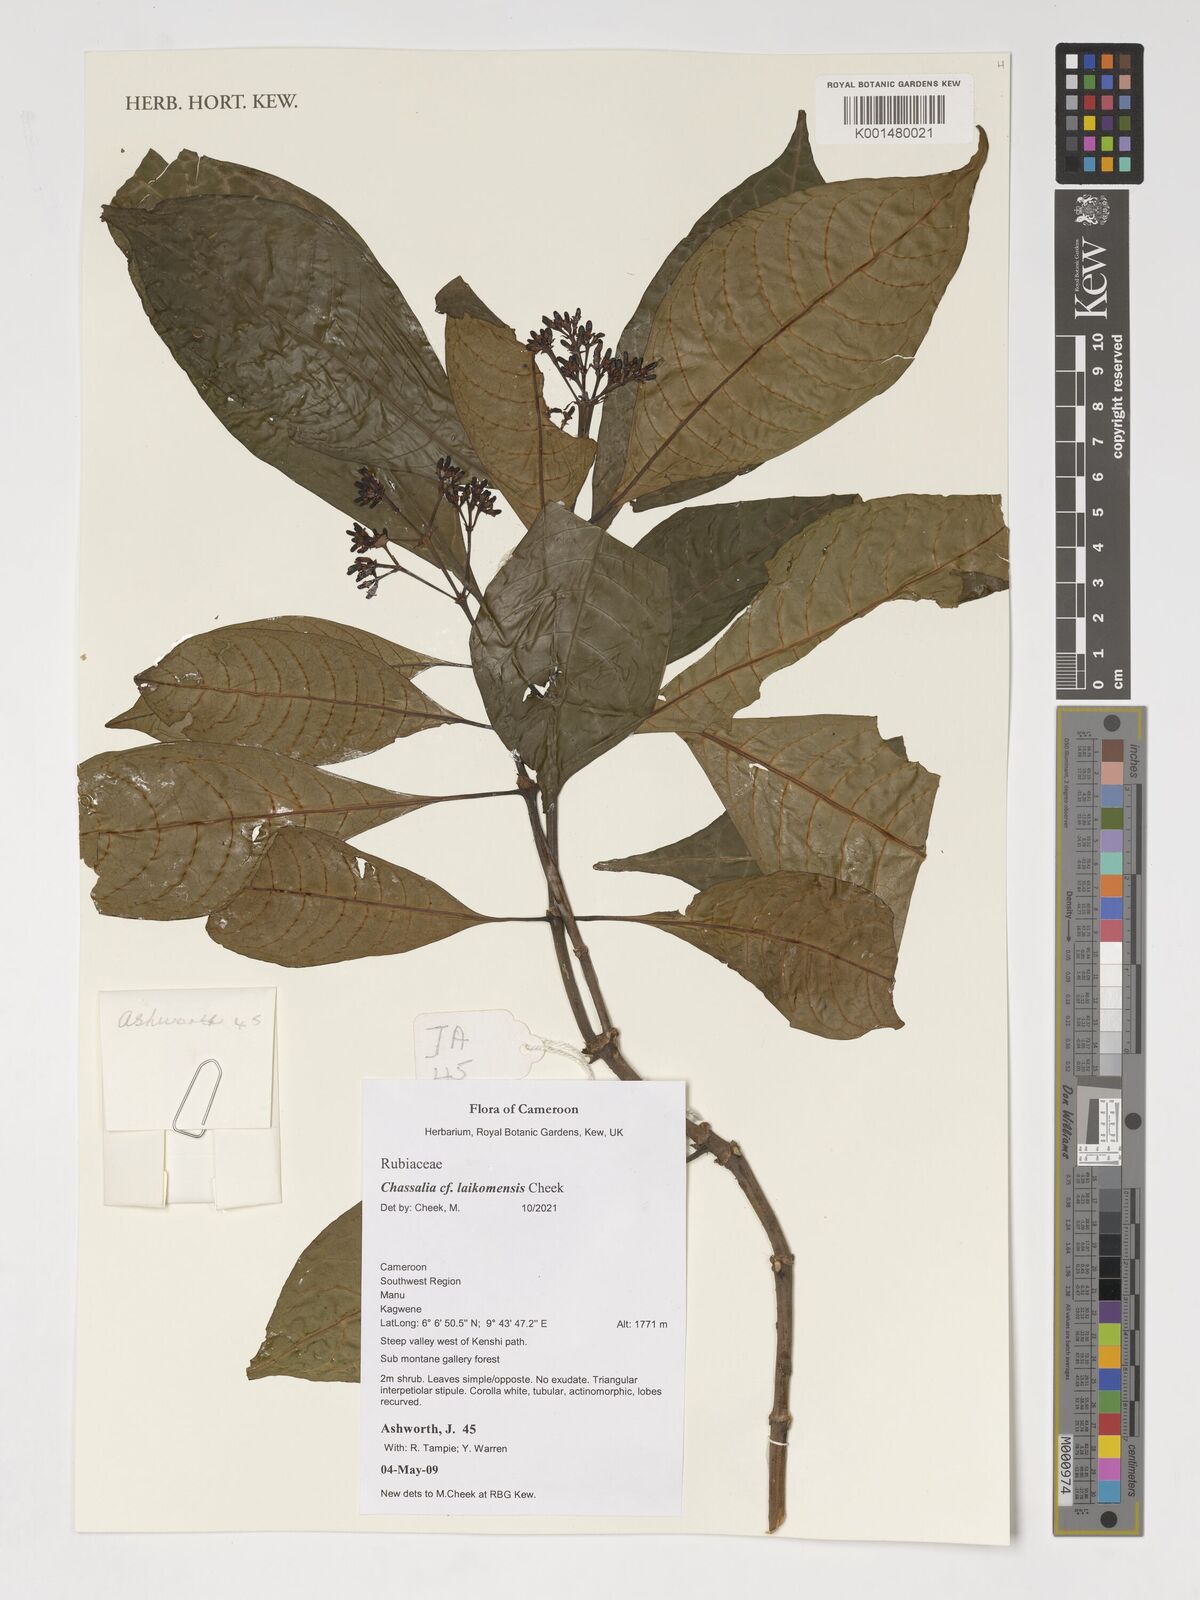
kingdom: Plantae
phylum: Tracheophyta
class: Magnoliopsida
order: Gentianales
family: Rubiaceae
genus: Chassalia
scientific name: Chassalia laikomensis
